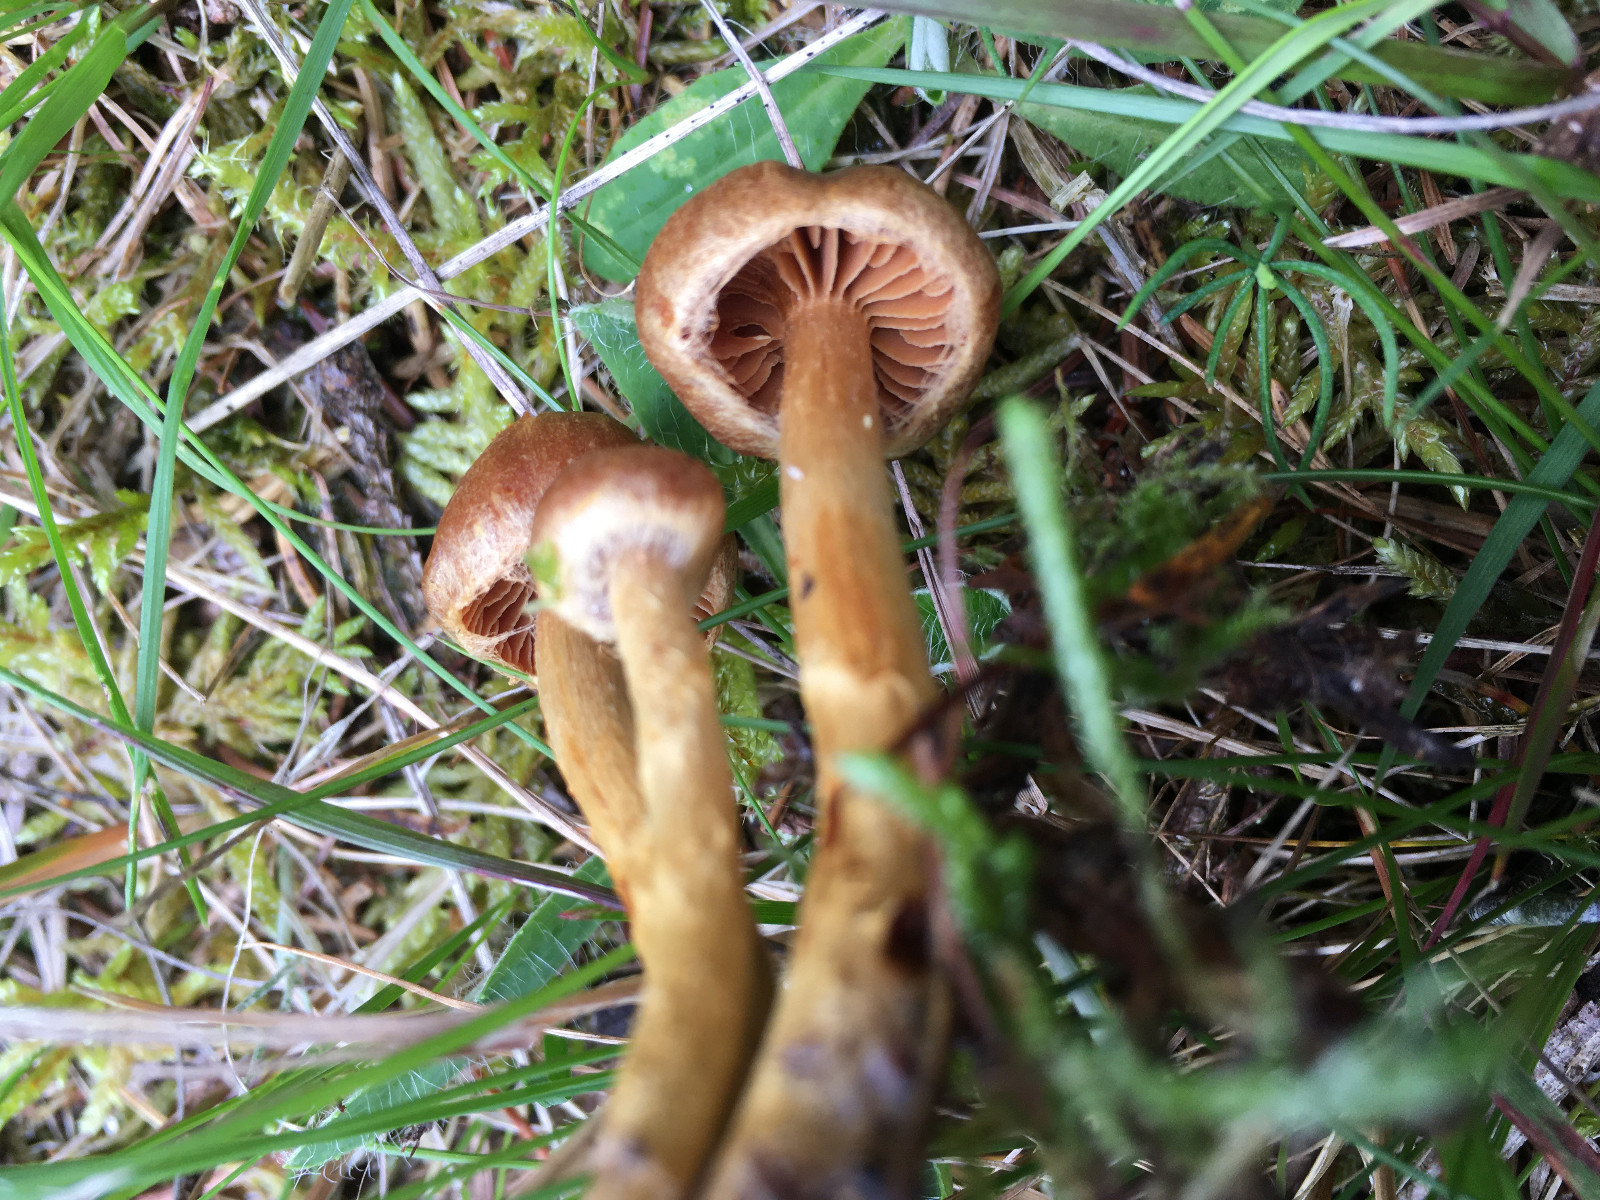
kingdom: Fungi
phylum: Basidiomycota
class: Agaricomycetes
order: Agaricales
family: Cortinariaceae
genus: Cortinarius
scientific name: Cortinarius
